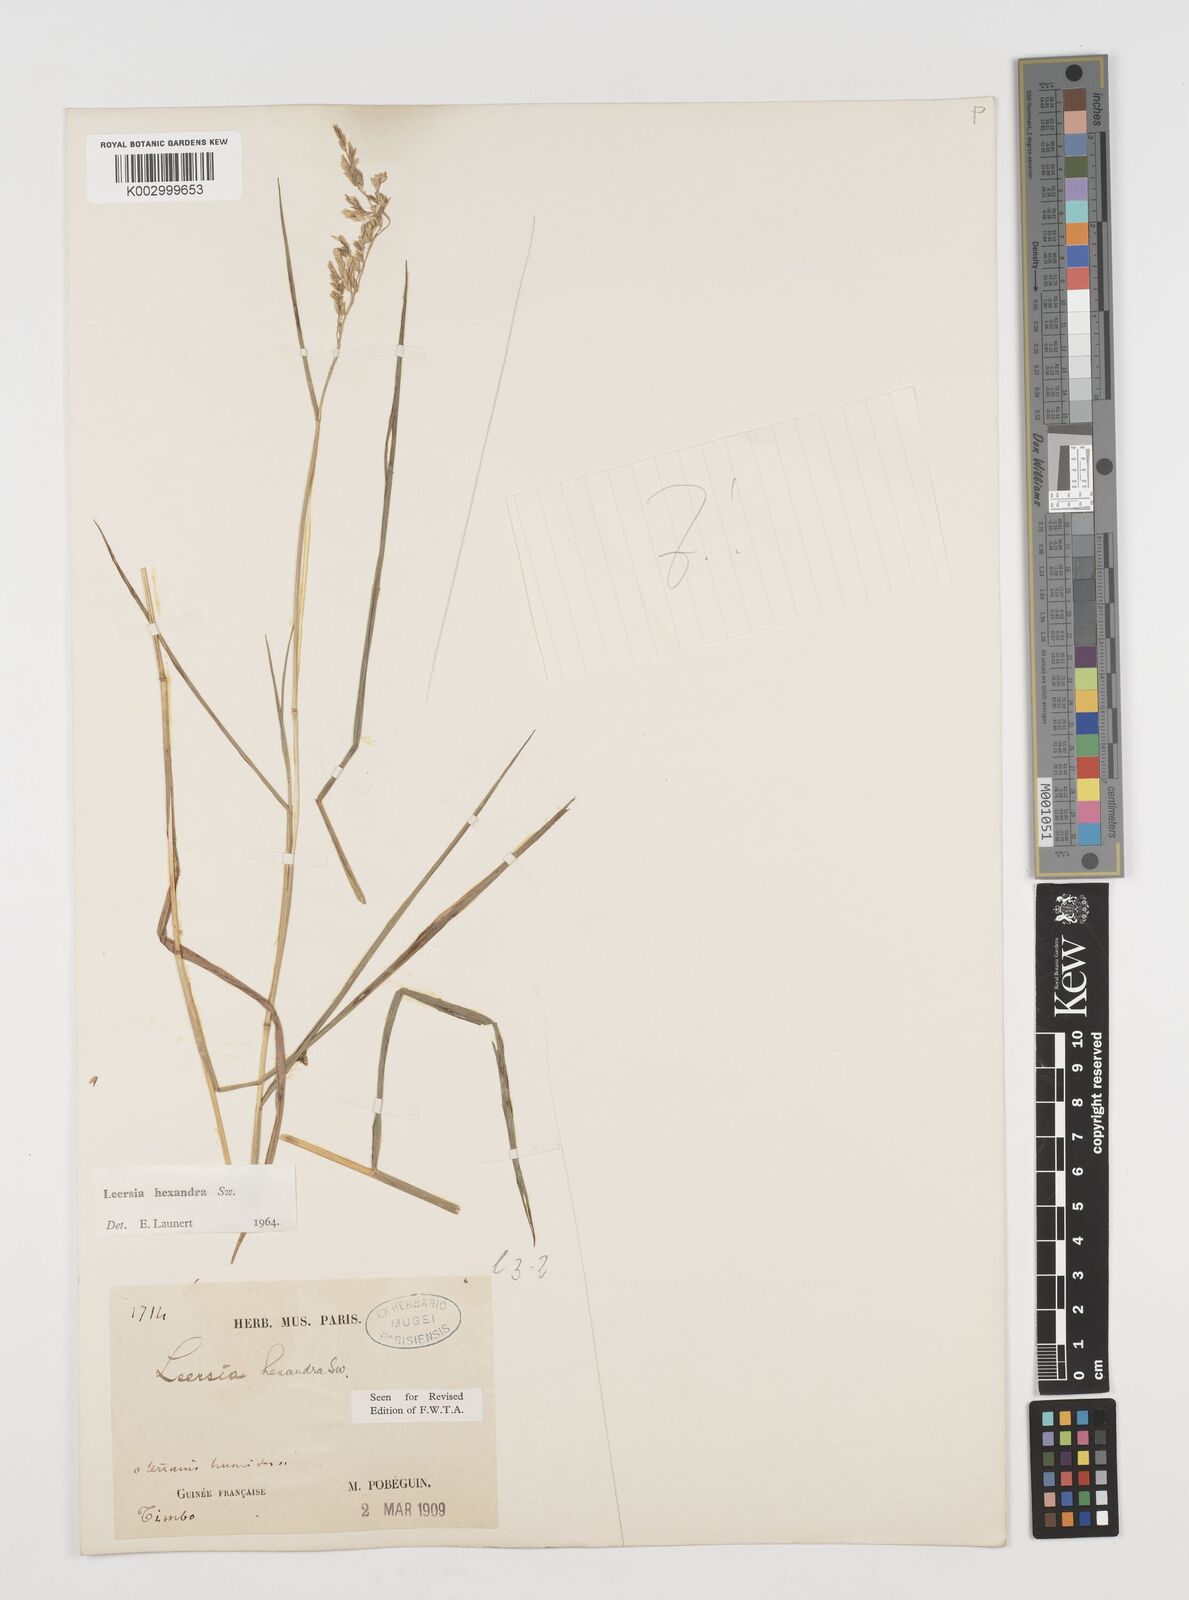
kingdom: Plantae
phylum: Tracheophyta
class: Liliopsida
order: Poales
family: Poaceae
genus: Leersia
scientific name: Leersia hexandra
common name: Southern cut grass
